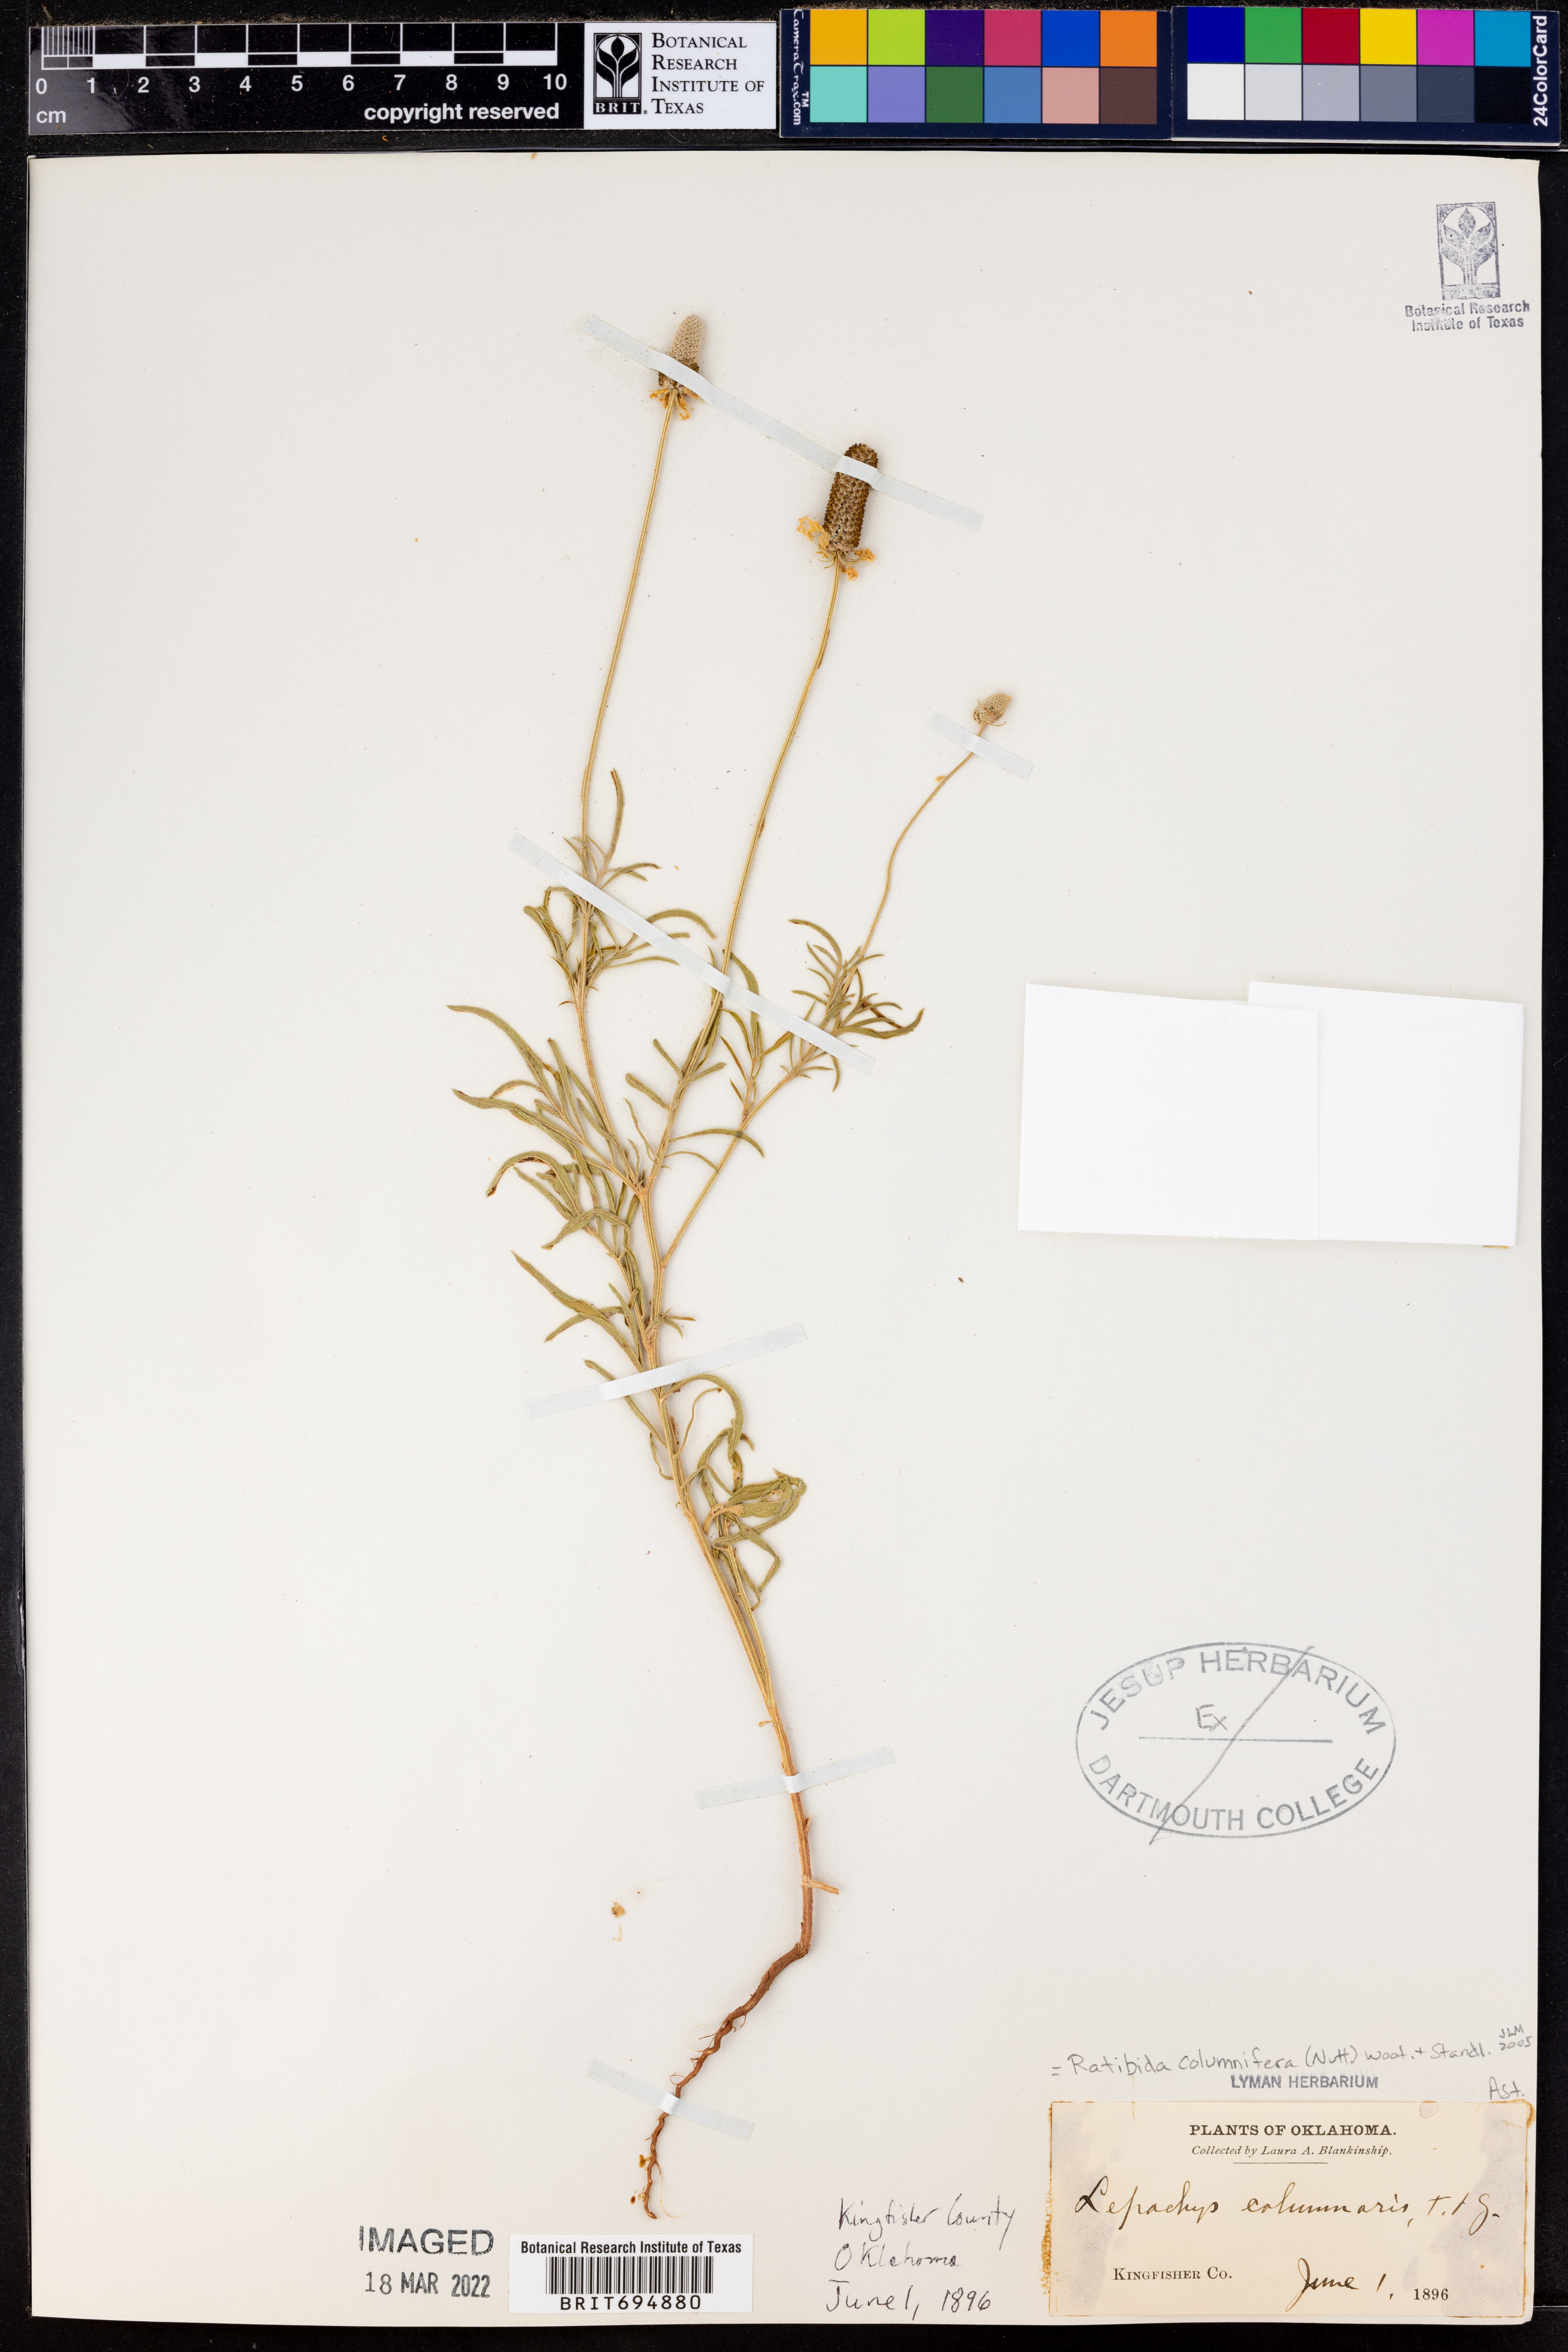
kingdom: Plantae
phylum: Tracheophyta
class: Magnoliopsida
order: Asterales
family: Asteraceae
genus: Ratibida
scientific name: Ratibida columnifera
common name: Prairie coneflower
